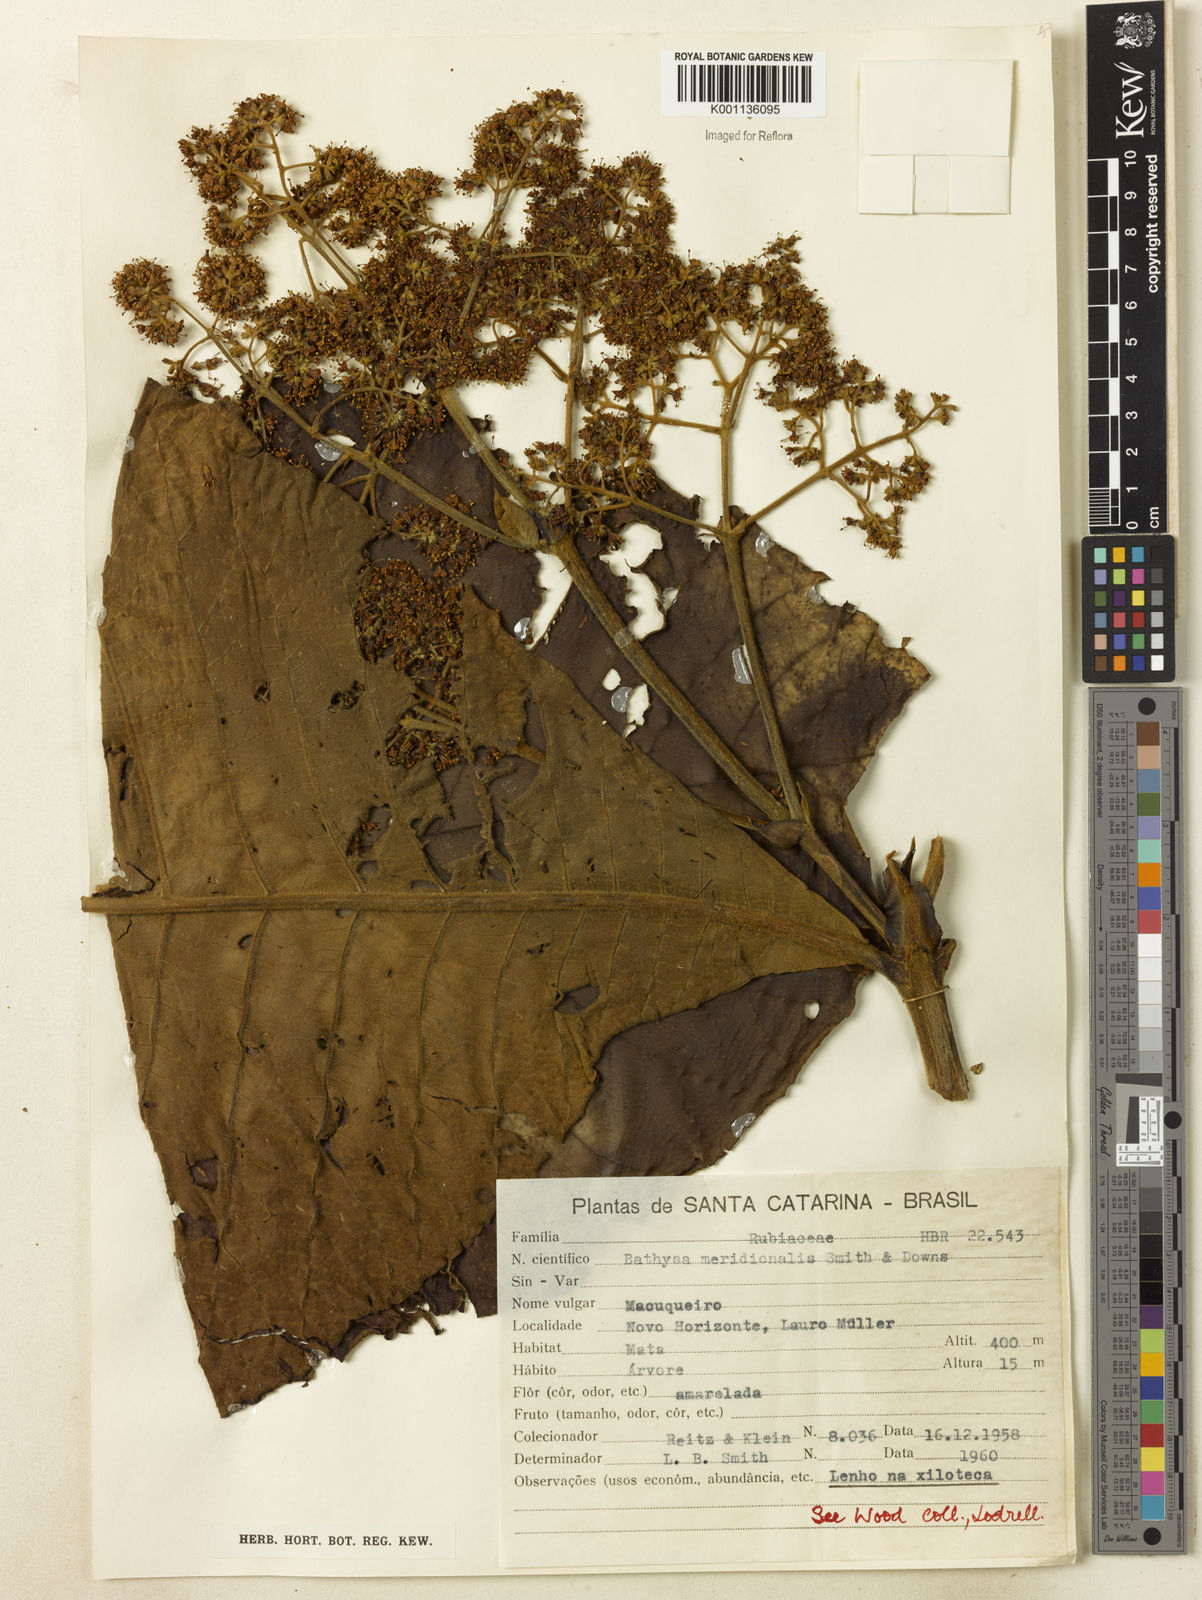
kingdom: Plantae
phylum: Tracheophyta
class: Magnoliopsida
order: Gentianales
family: Rubiaceae
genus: Bathysa
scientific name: Bathysa australis
